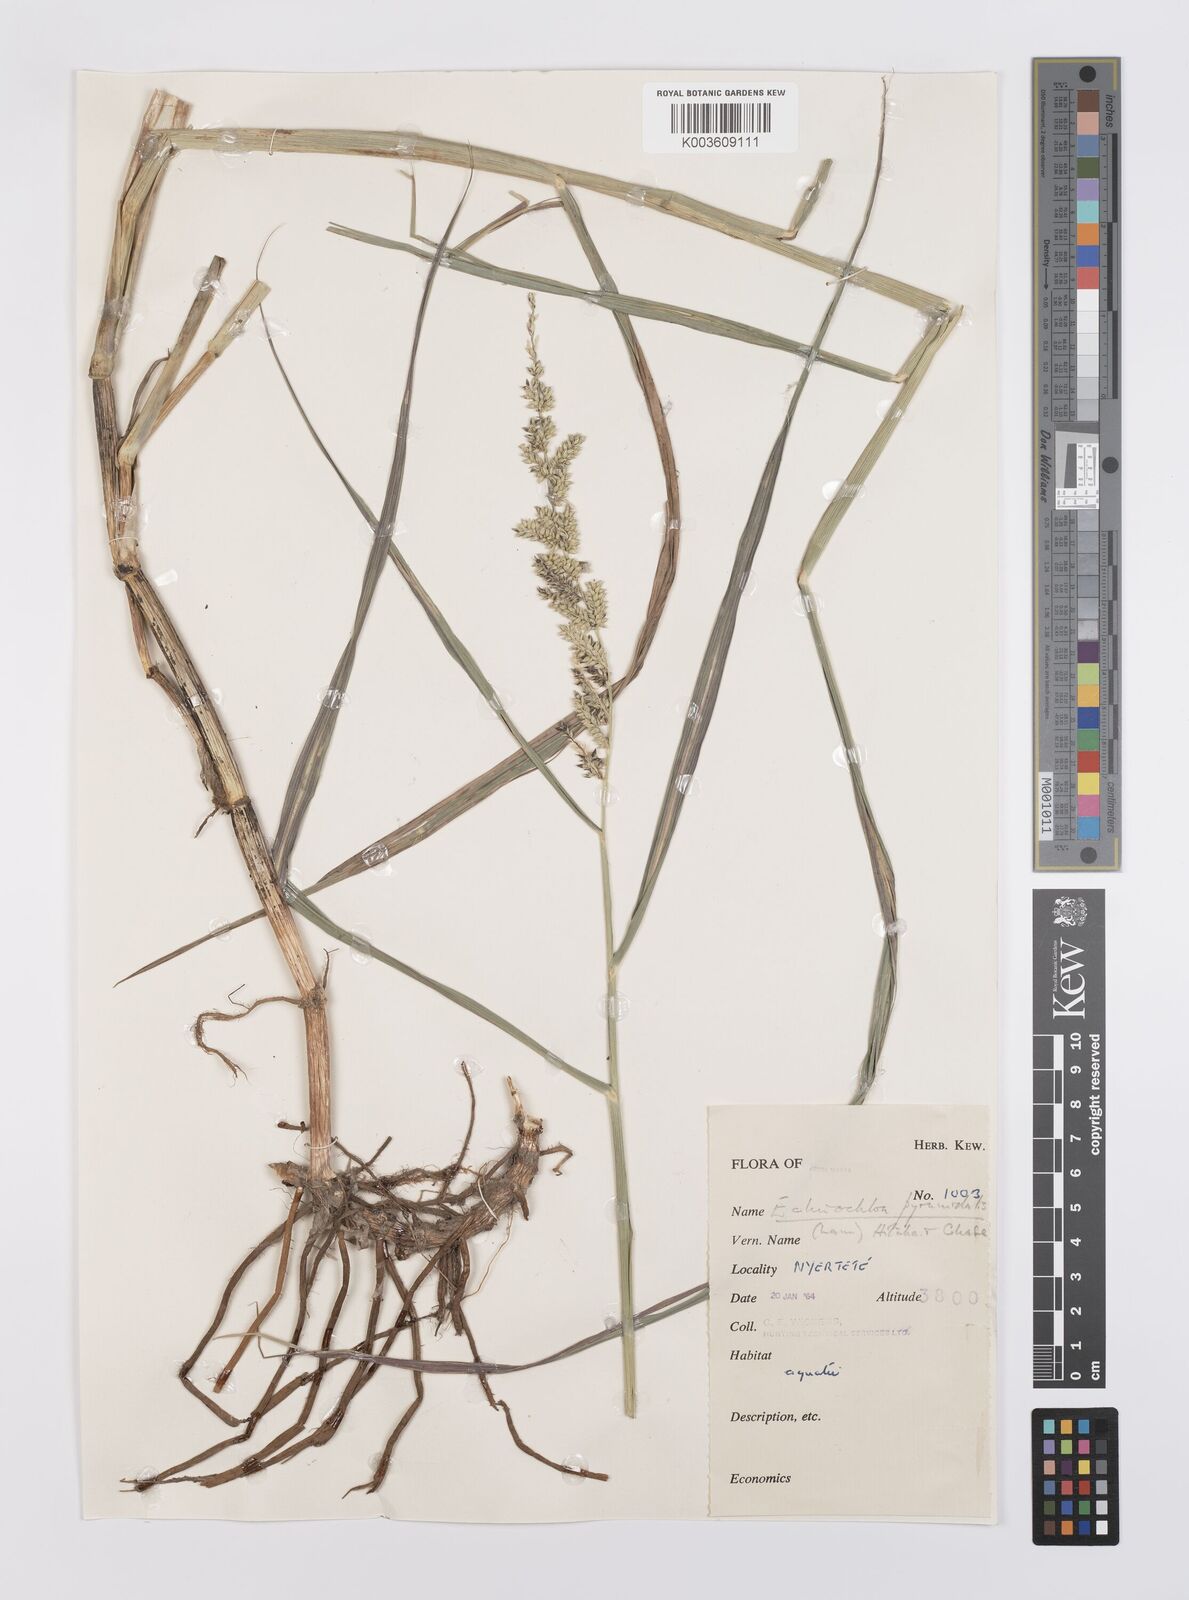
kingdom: Plantae
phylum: Tracheophyta
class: Liliopsida
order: Poales
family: Poaceae
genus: Echinochloa
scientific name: Echinochloa pyramidalis
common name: Antelope grass
